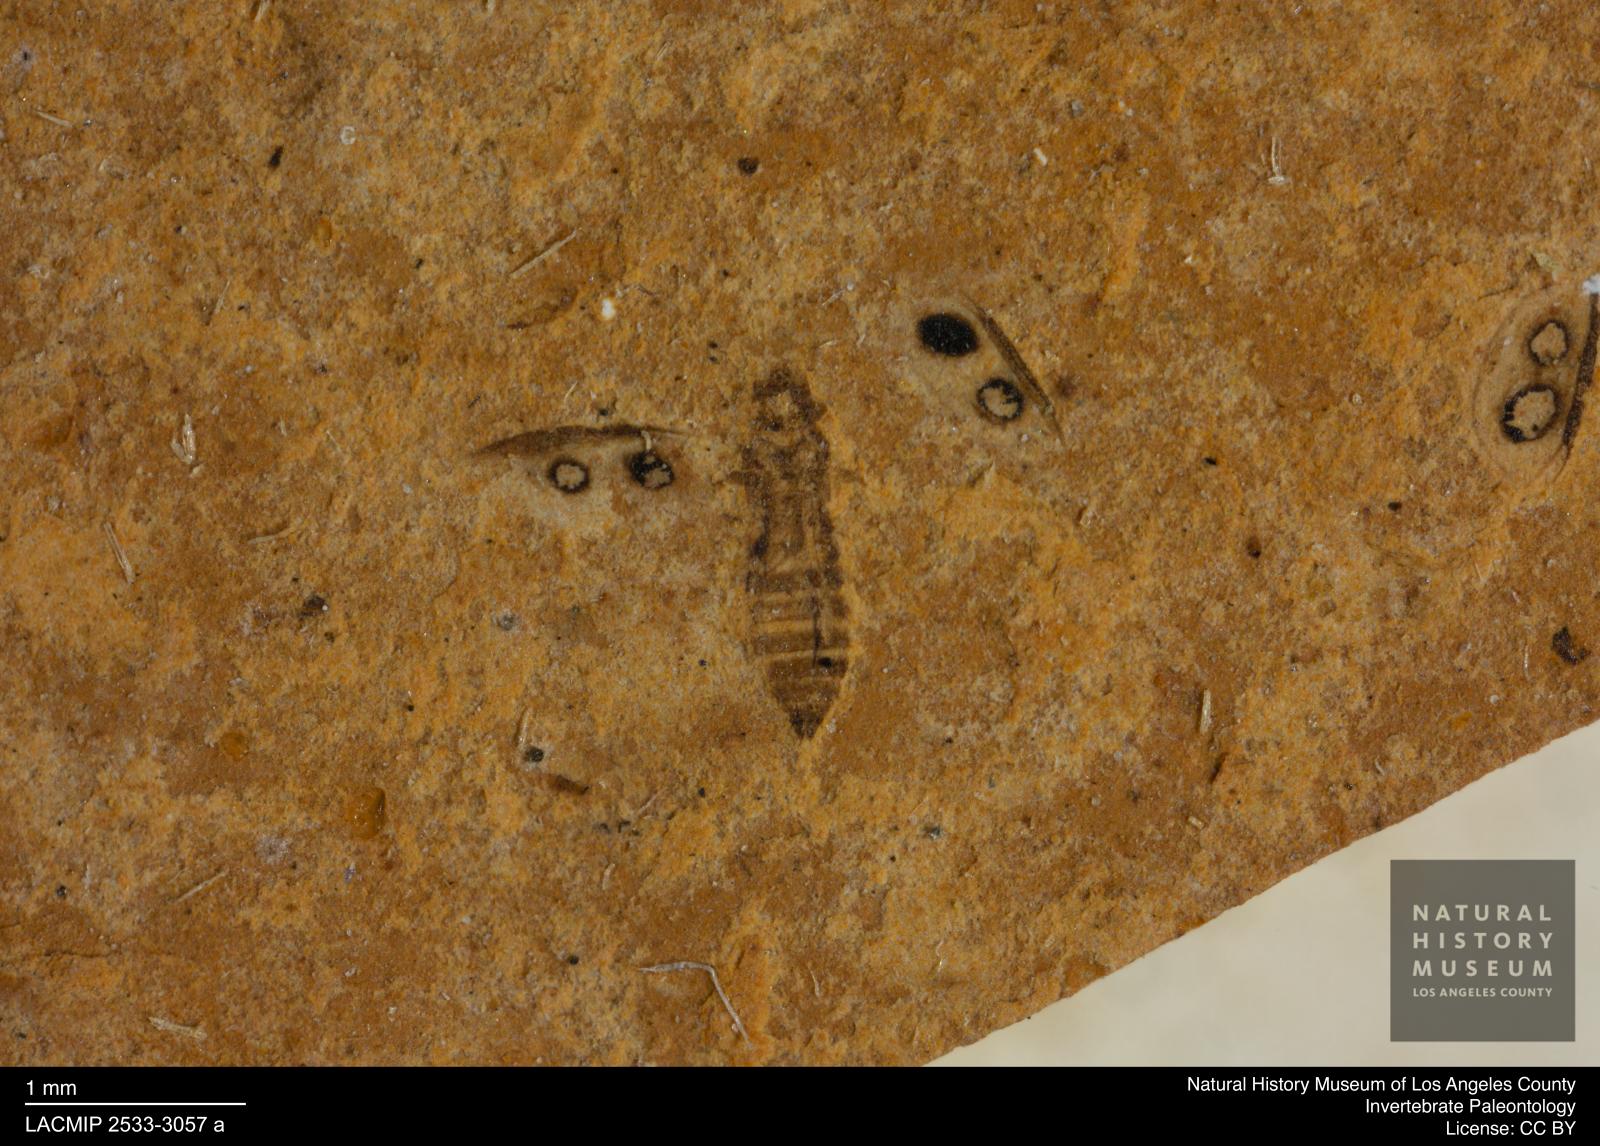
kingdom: Animalia
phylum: Arthropoda
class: Insecta
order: Thysanoptera
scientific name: Thysanoptera
